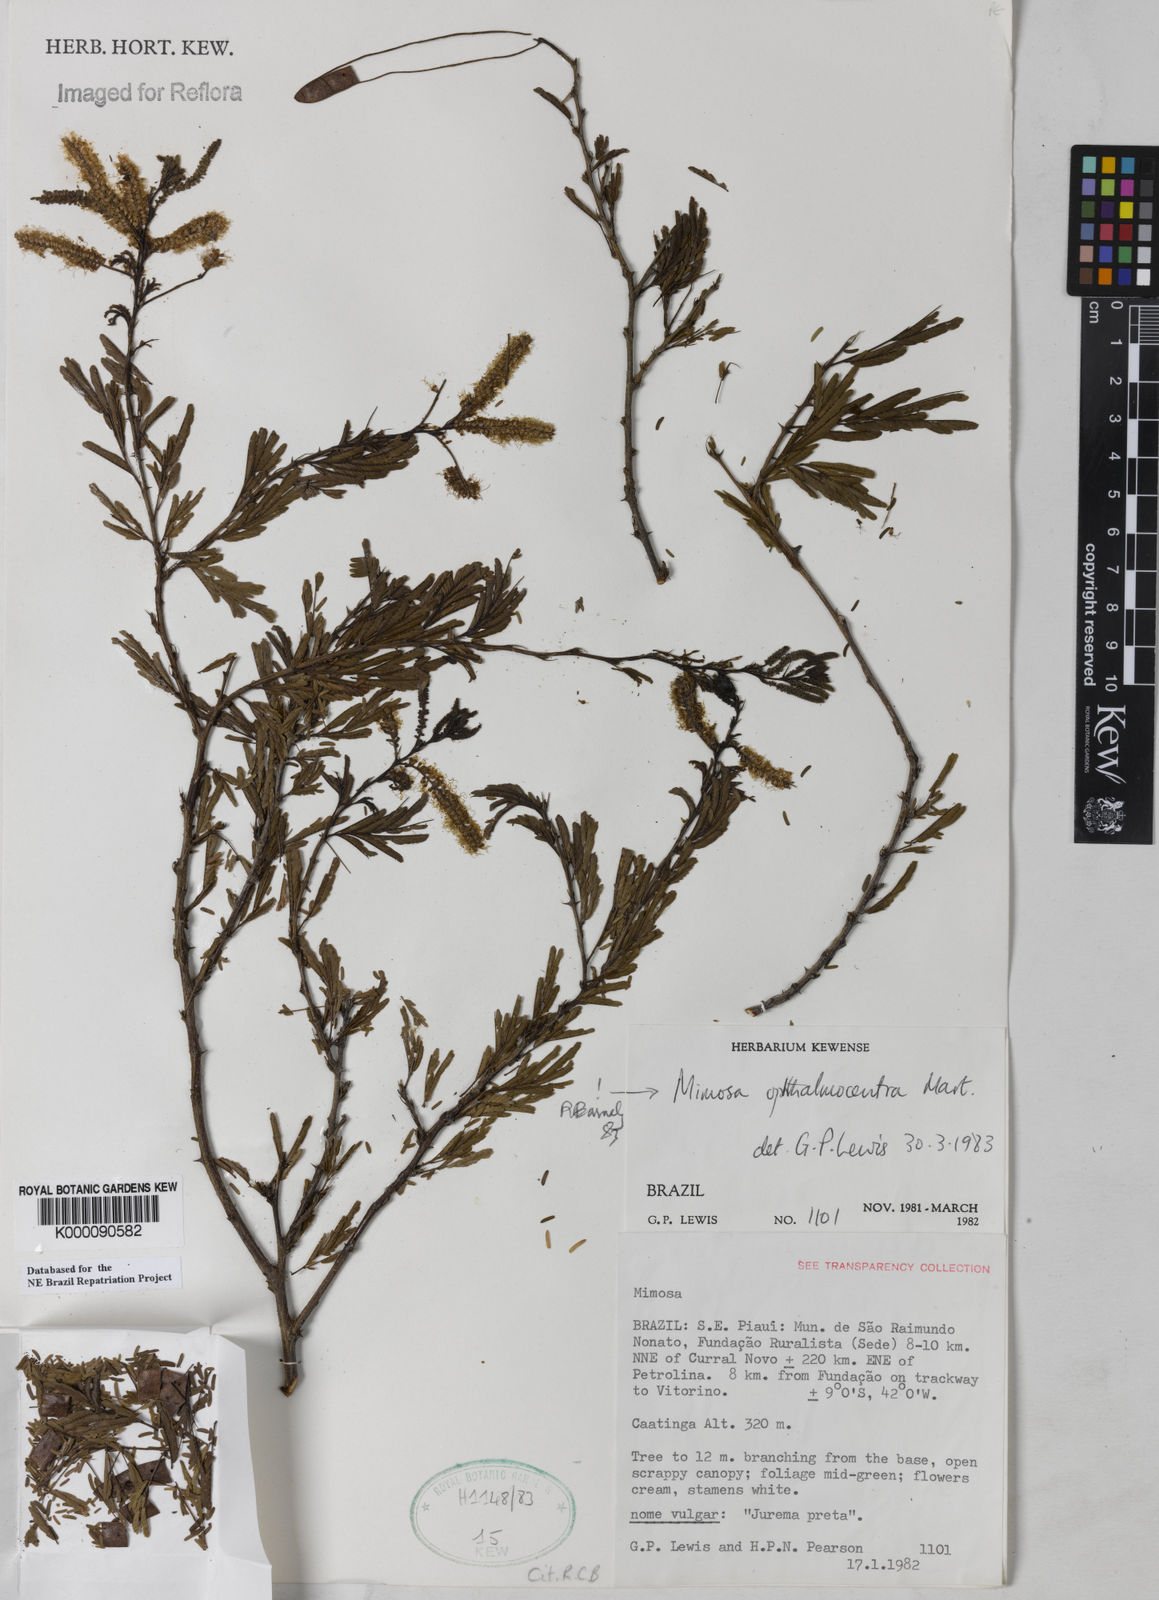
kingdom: Plantae
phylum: Tracheophyta
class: Magnoliopsida
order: Fabales
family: Fabaceae
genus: Mimosa
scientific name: Mimosa
